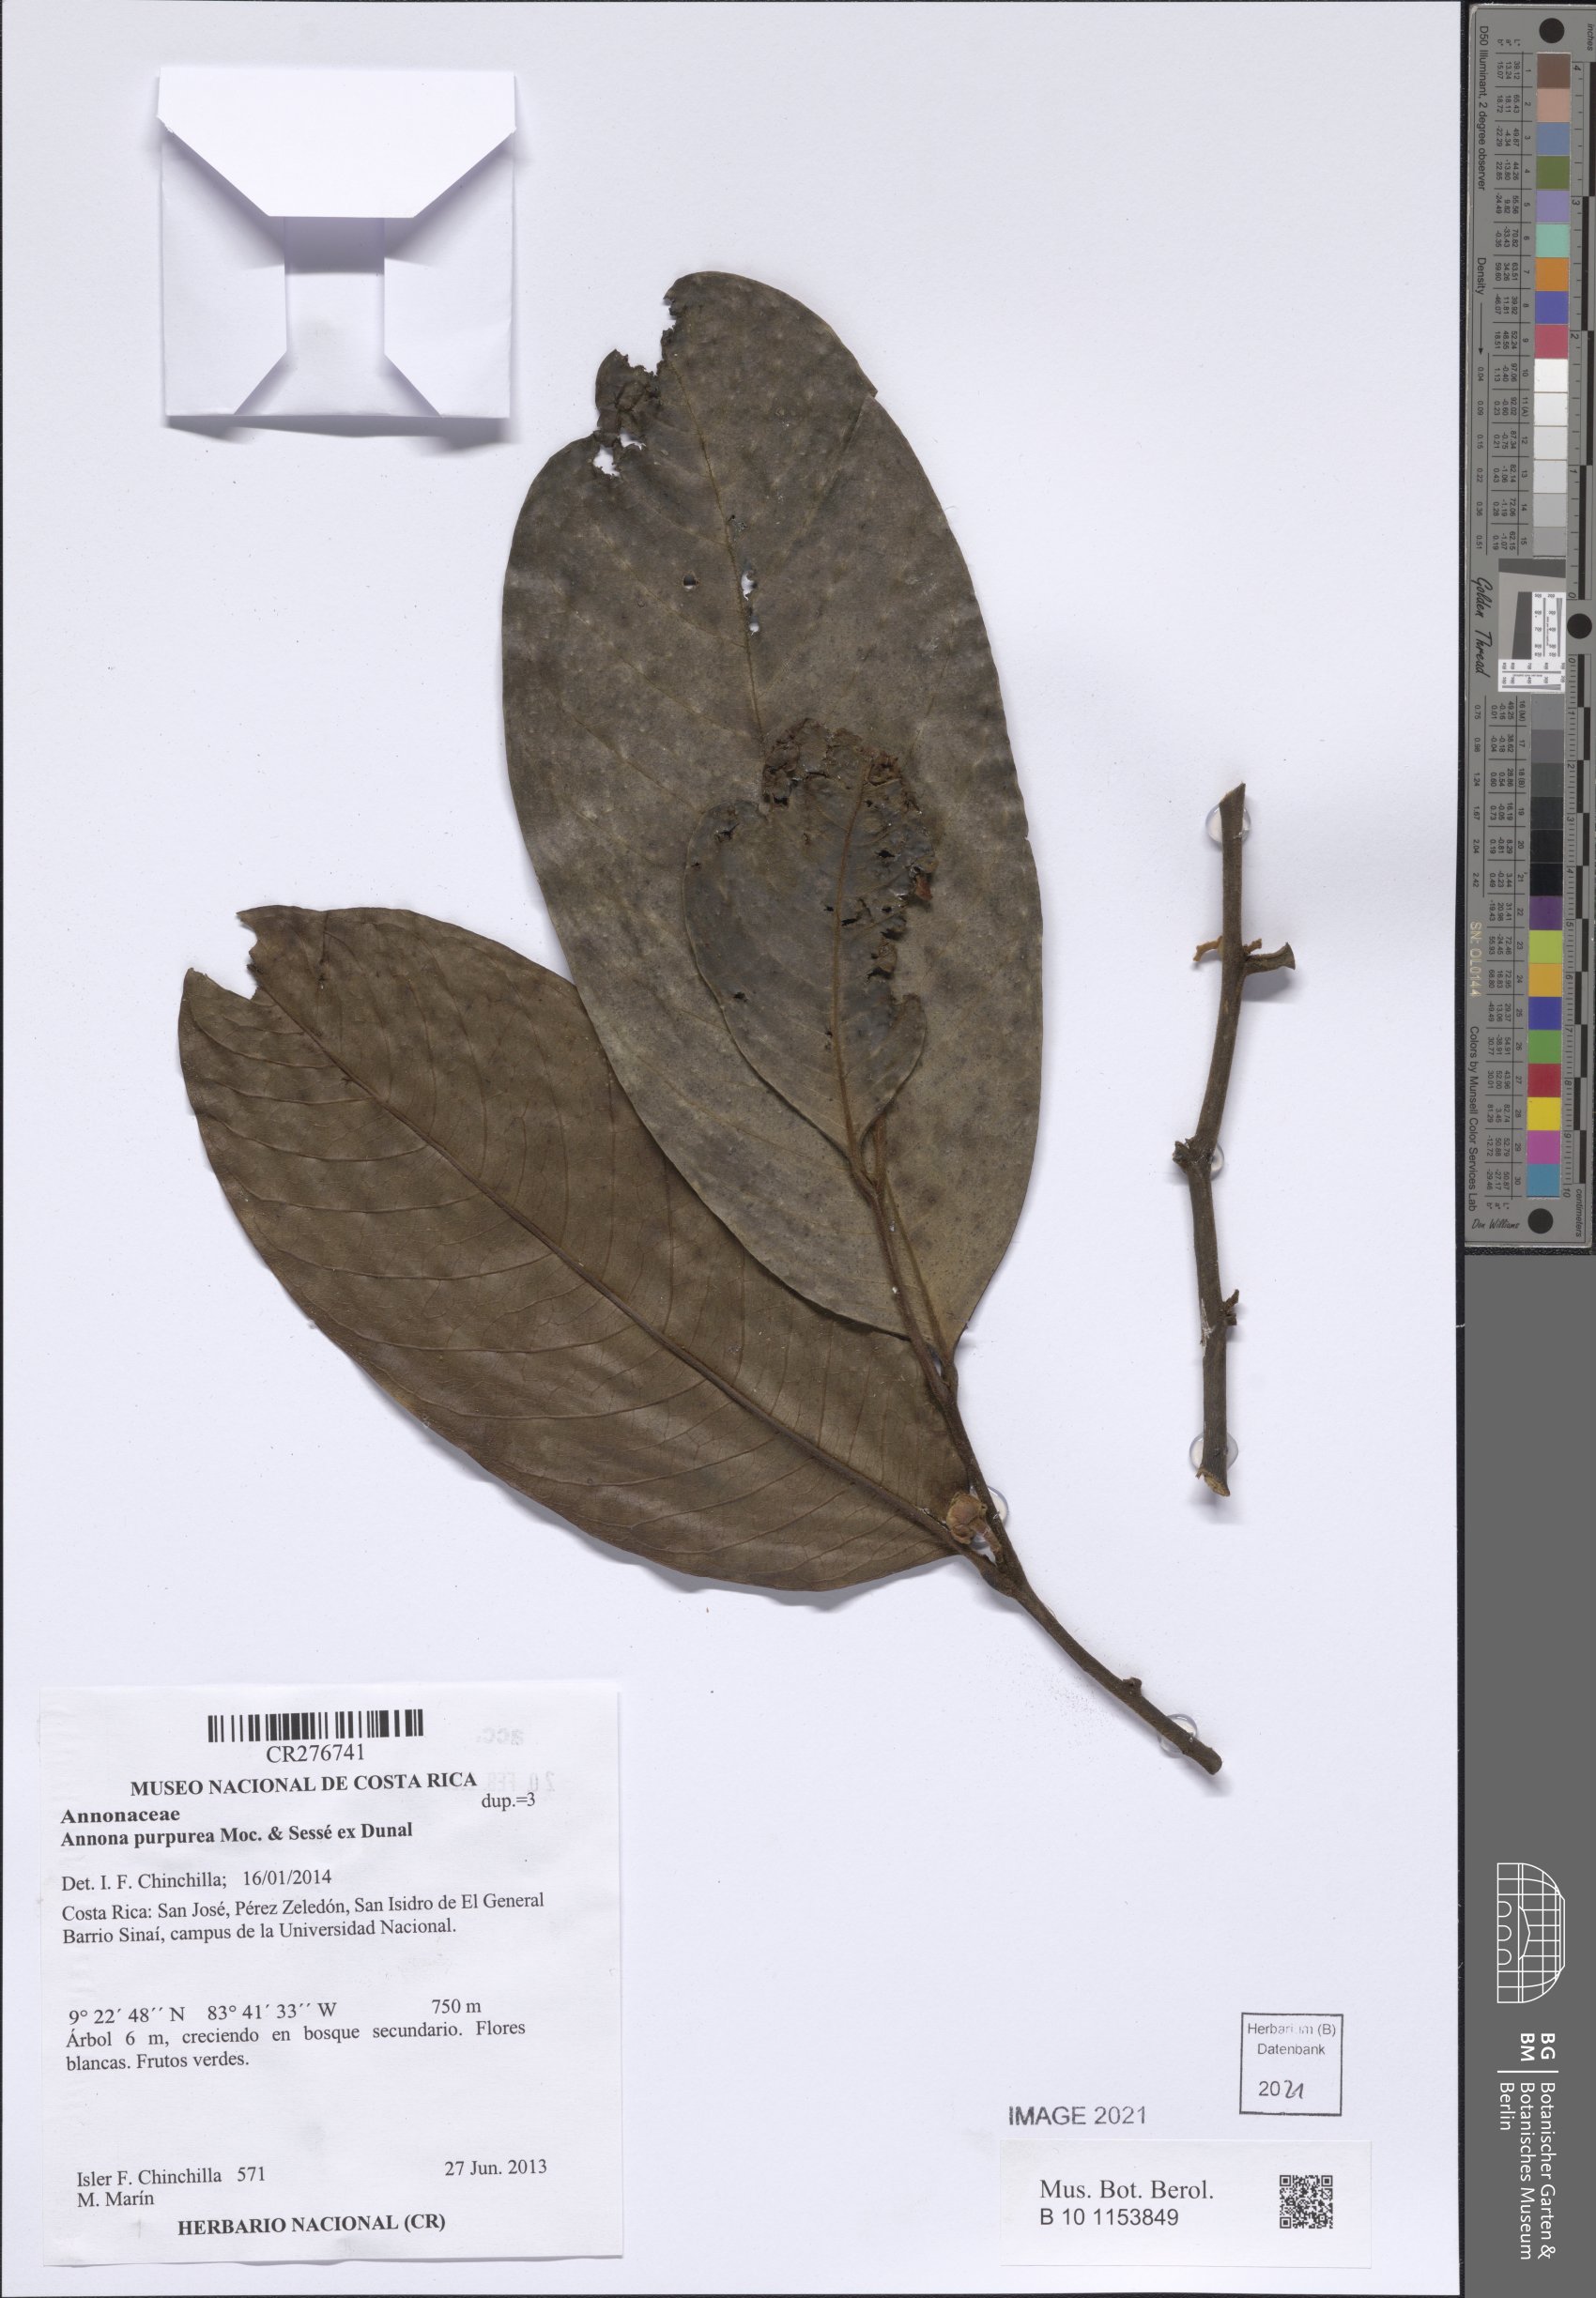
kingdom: Plantae
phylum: Tracheophyta
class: Magnoliopsida
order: Magnoliales
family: Annonaceae
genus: Annona
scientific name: Annona purpurea
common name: Negrohead
